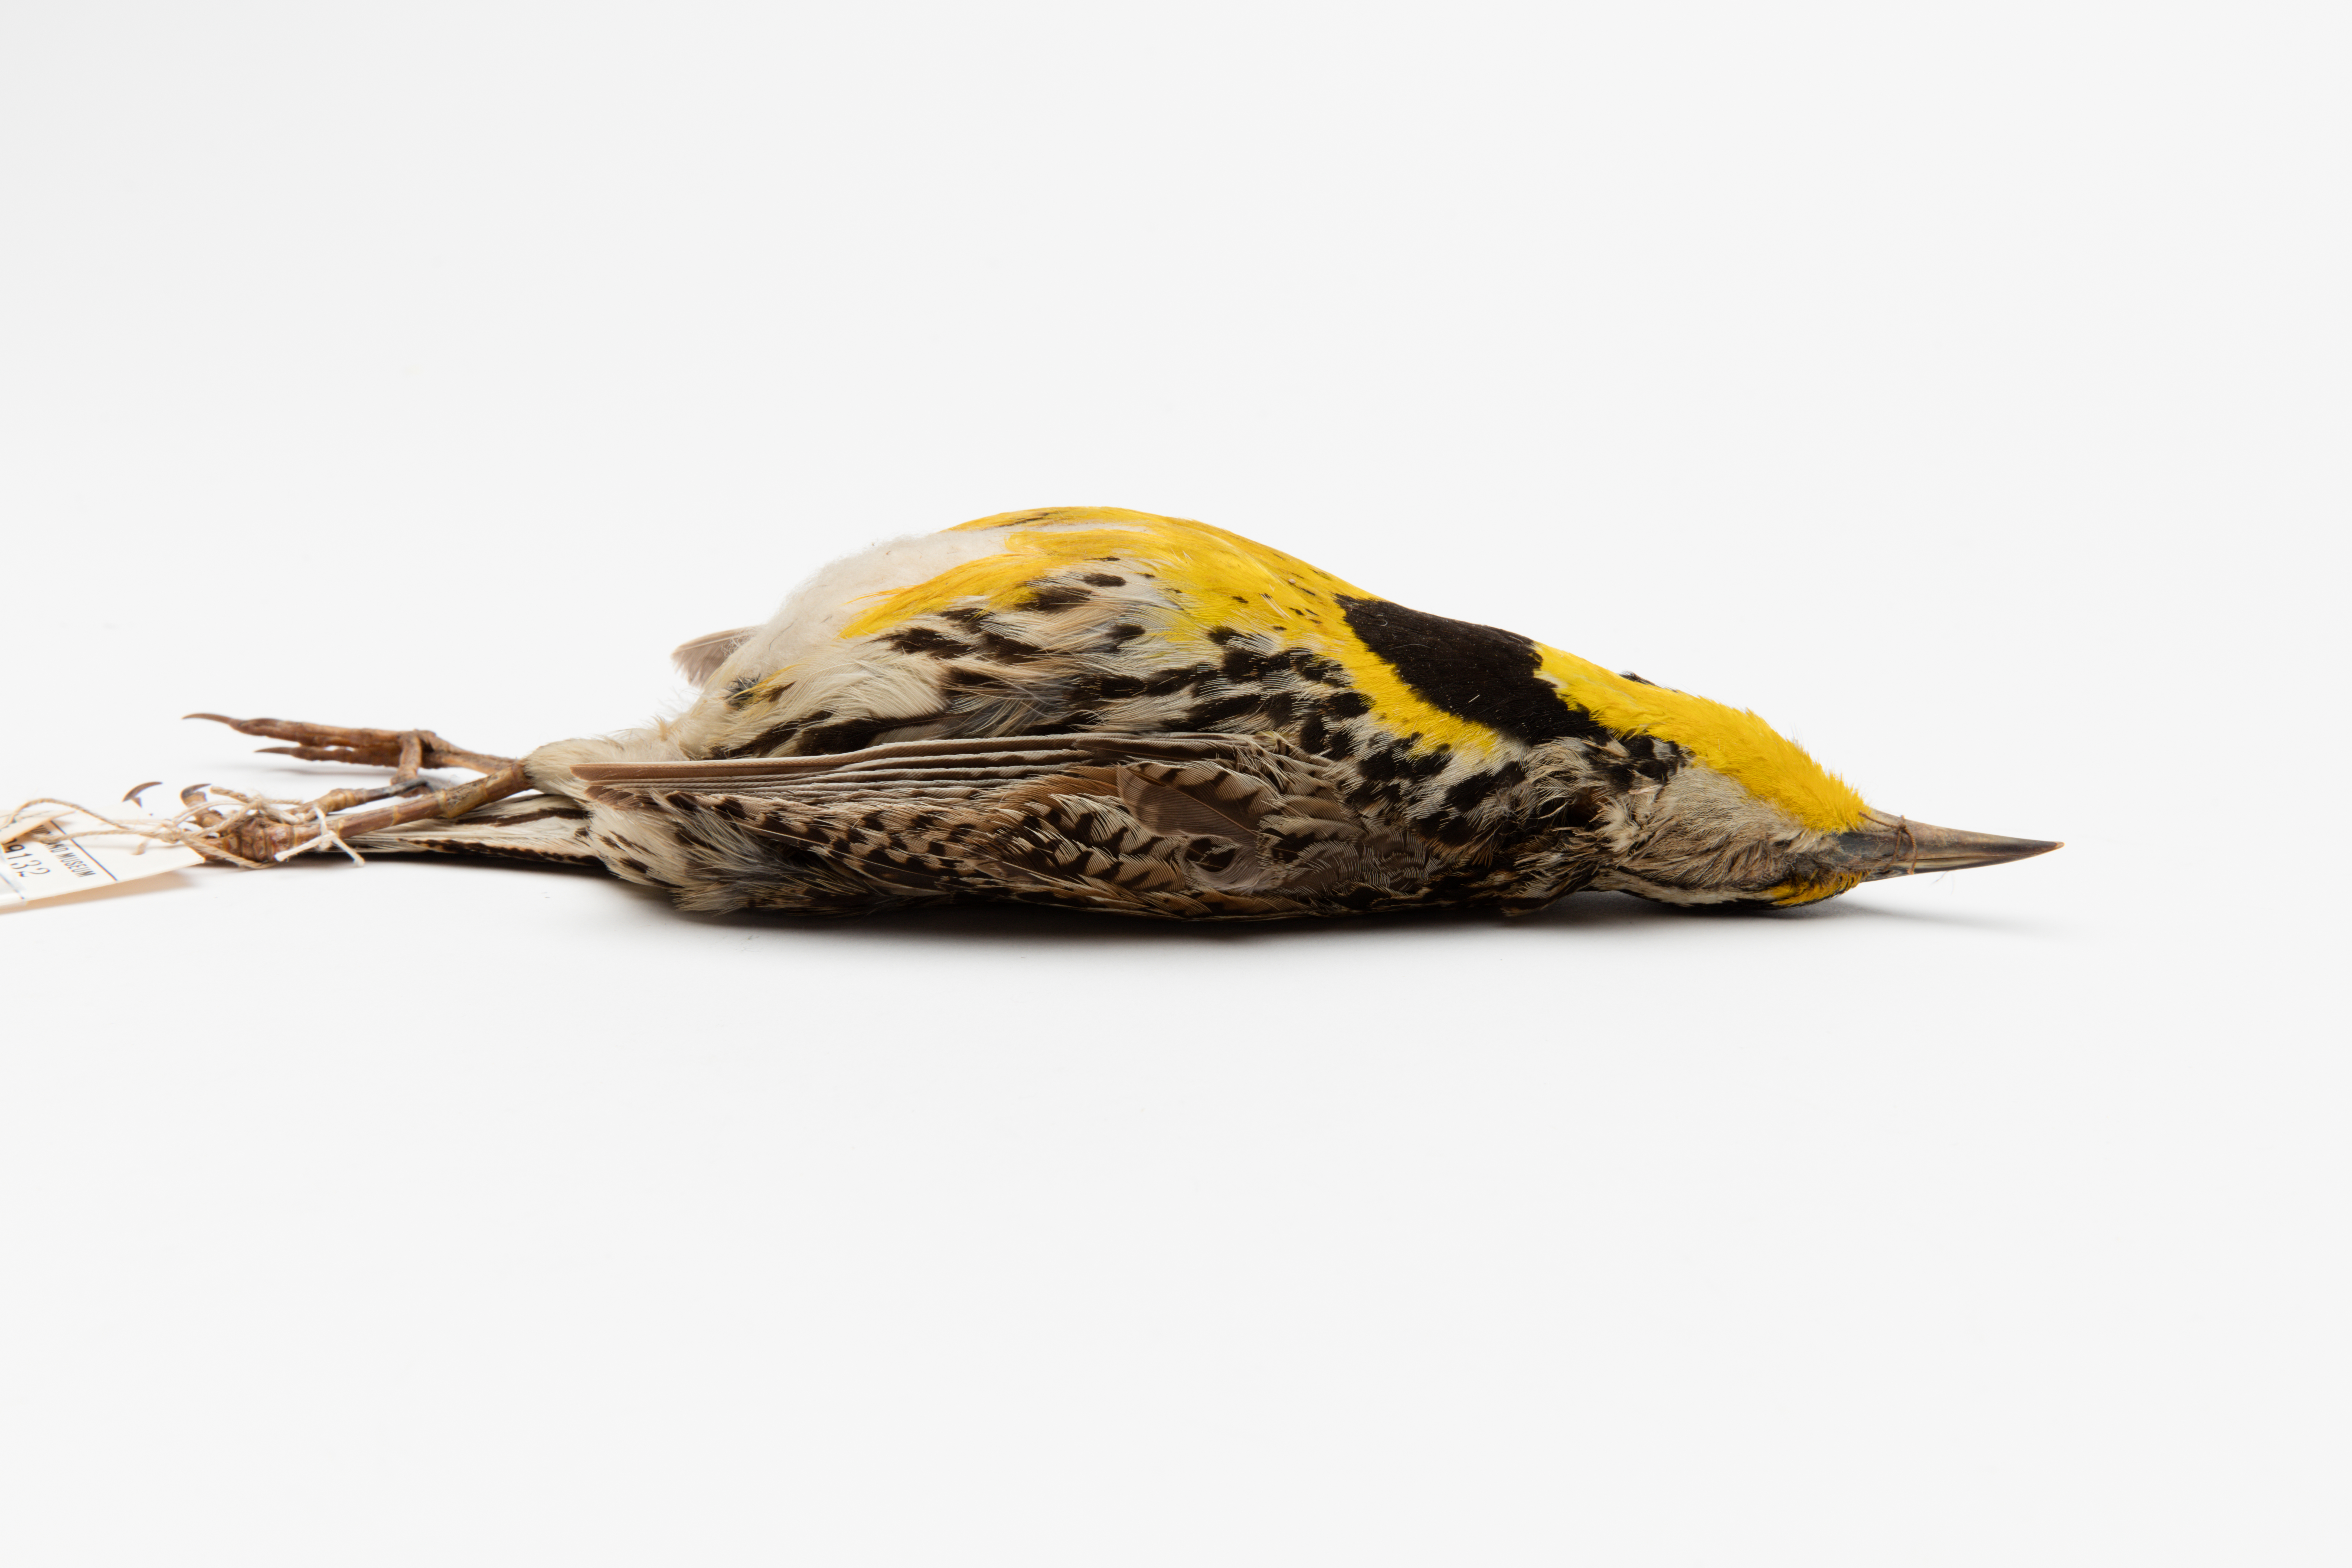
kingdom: Animalia
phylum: Chordata
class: Aves
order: Passeriformes
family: Icteridae
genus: Sturnella
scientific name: Sturnella magna
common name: Eastern meadowlark
